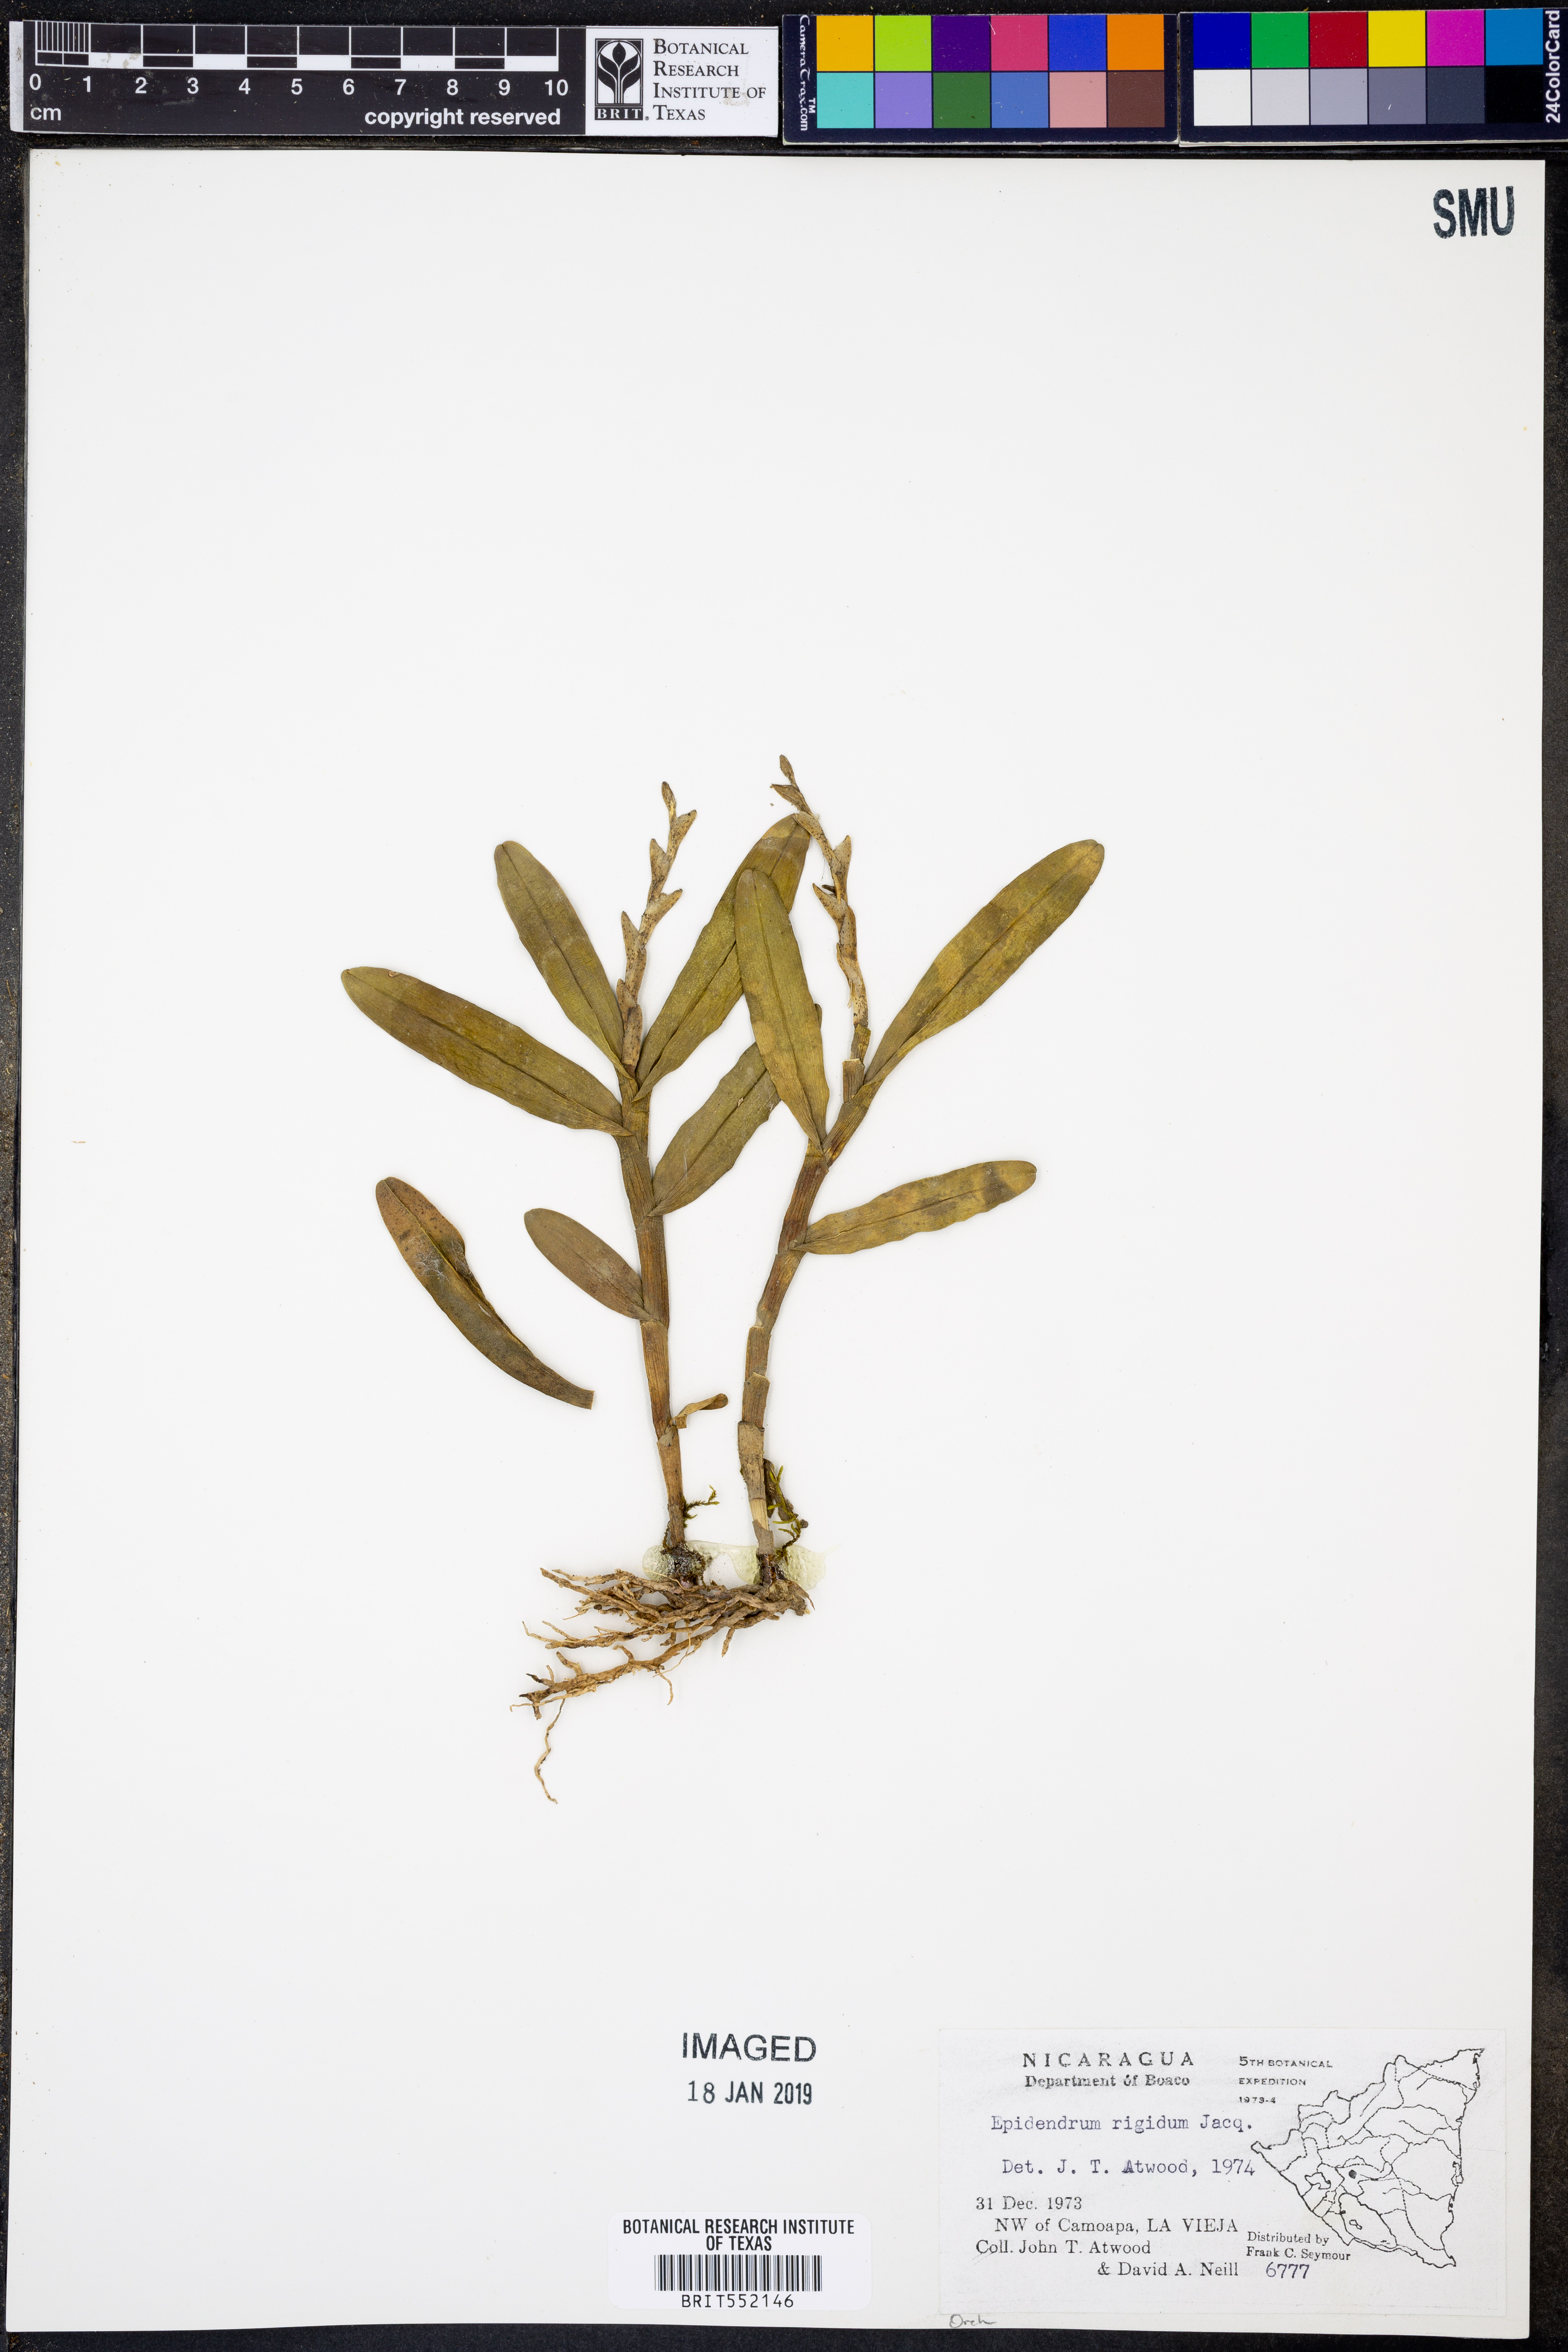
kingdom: Plantae
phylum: Tracheophyta
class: Liliopsida
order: Asparagales
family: Orchidaceae
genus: Epidendrum
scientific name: Epidendrum rigidum
